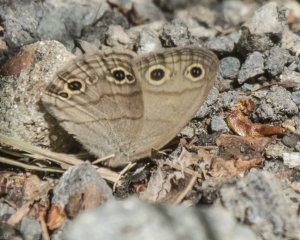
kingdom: Animalia
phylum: Arthropoda
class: Insecta
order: Lepidoptera
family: Nymphalidae
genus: Euptychia
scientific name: Euptychia cymela
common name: Little Wood Satyr
